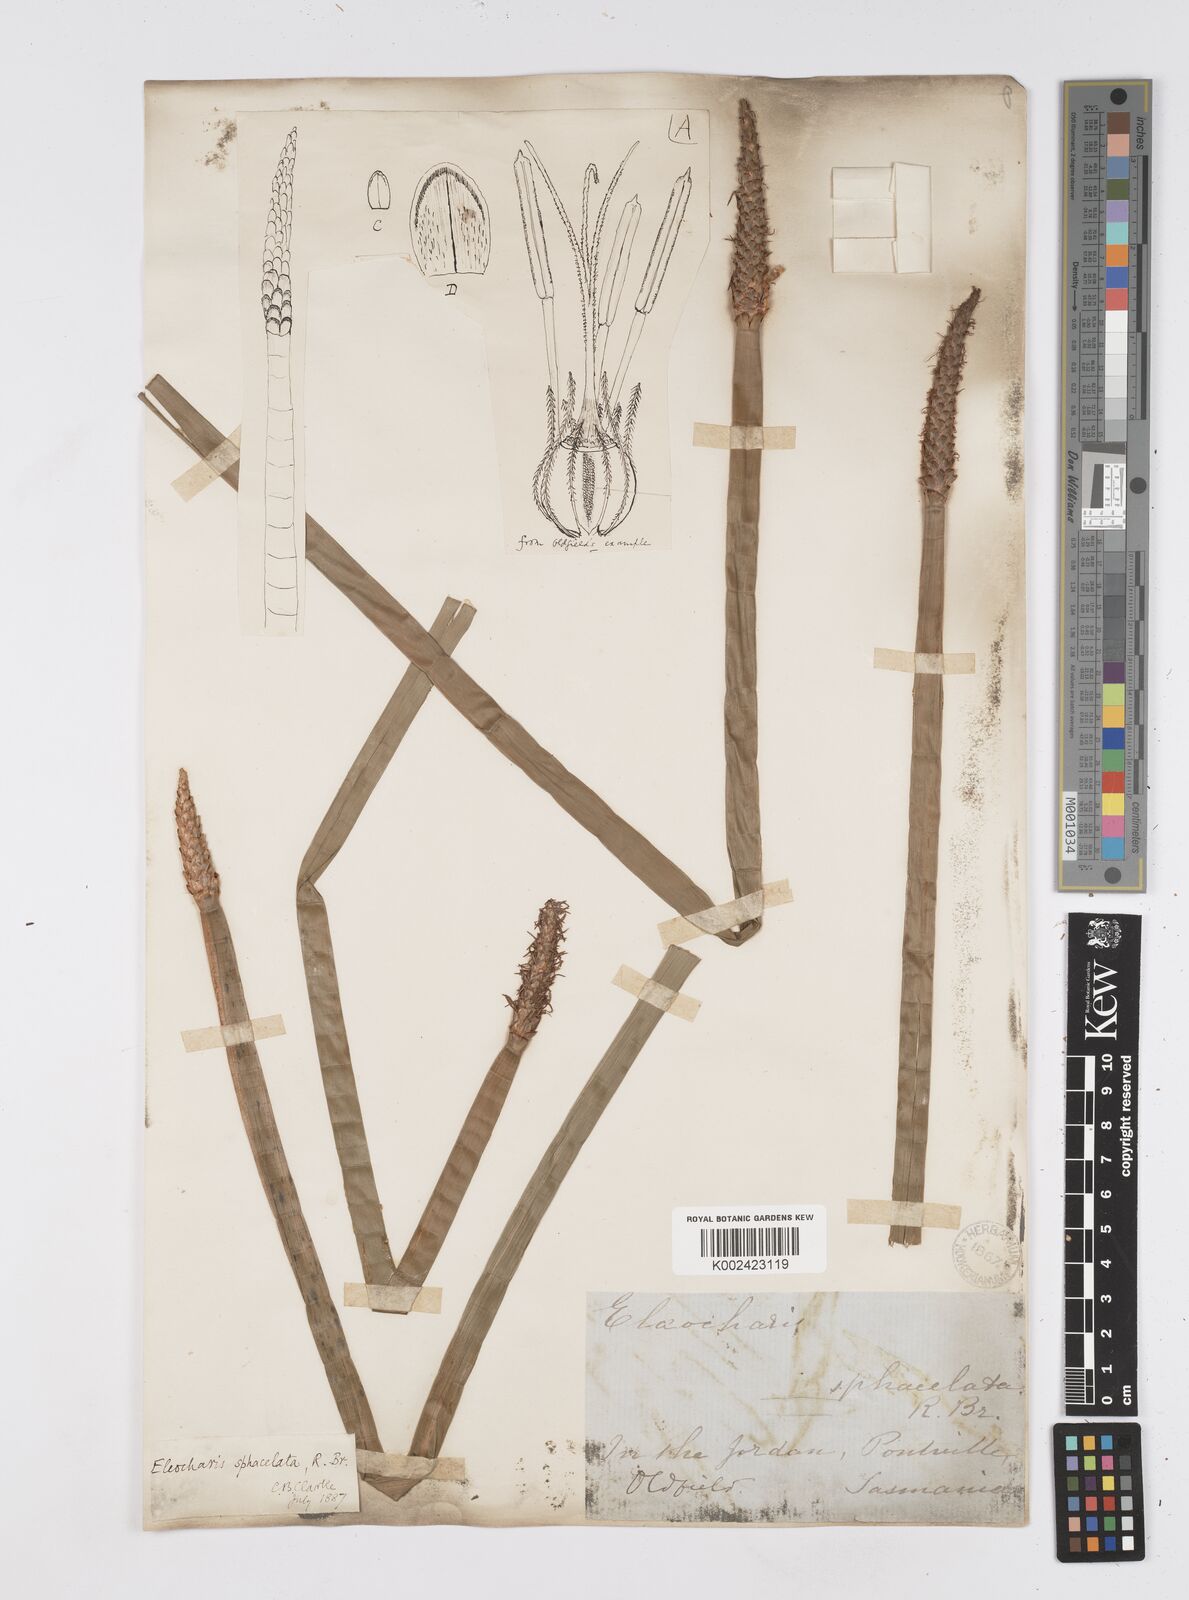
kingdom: Plantae
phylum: Tracheophyta
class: Liliopsida
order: Poales
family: Cyperaceae
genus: Eleocharis
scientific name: Eleocharis sphacelata
